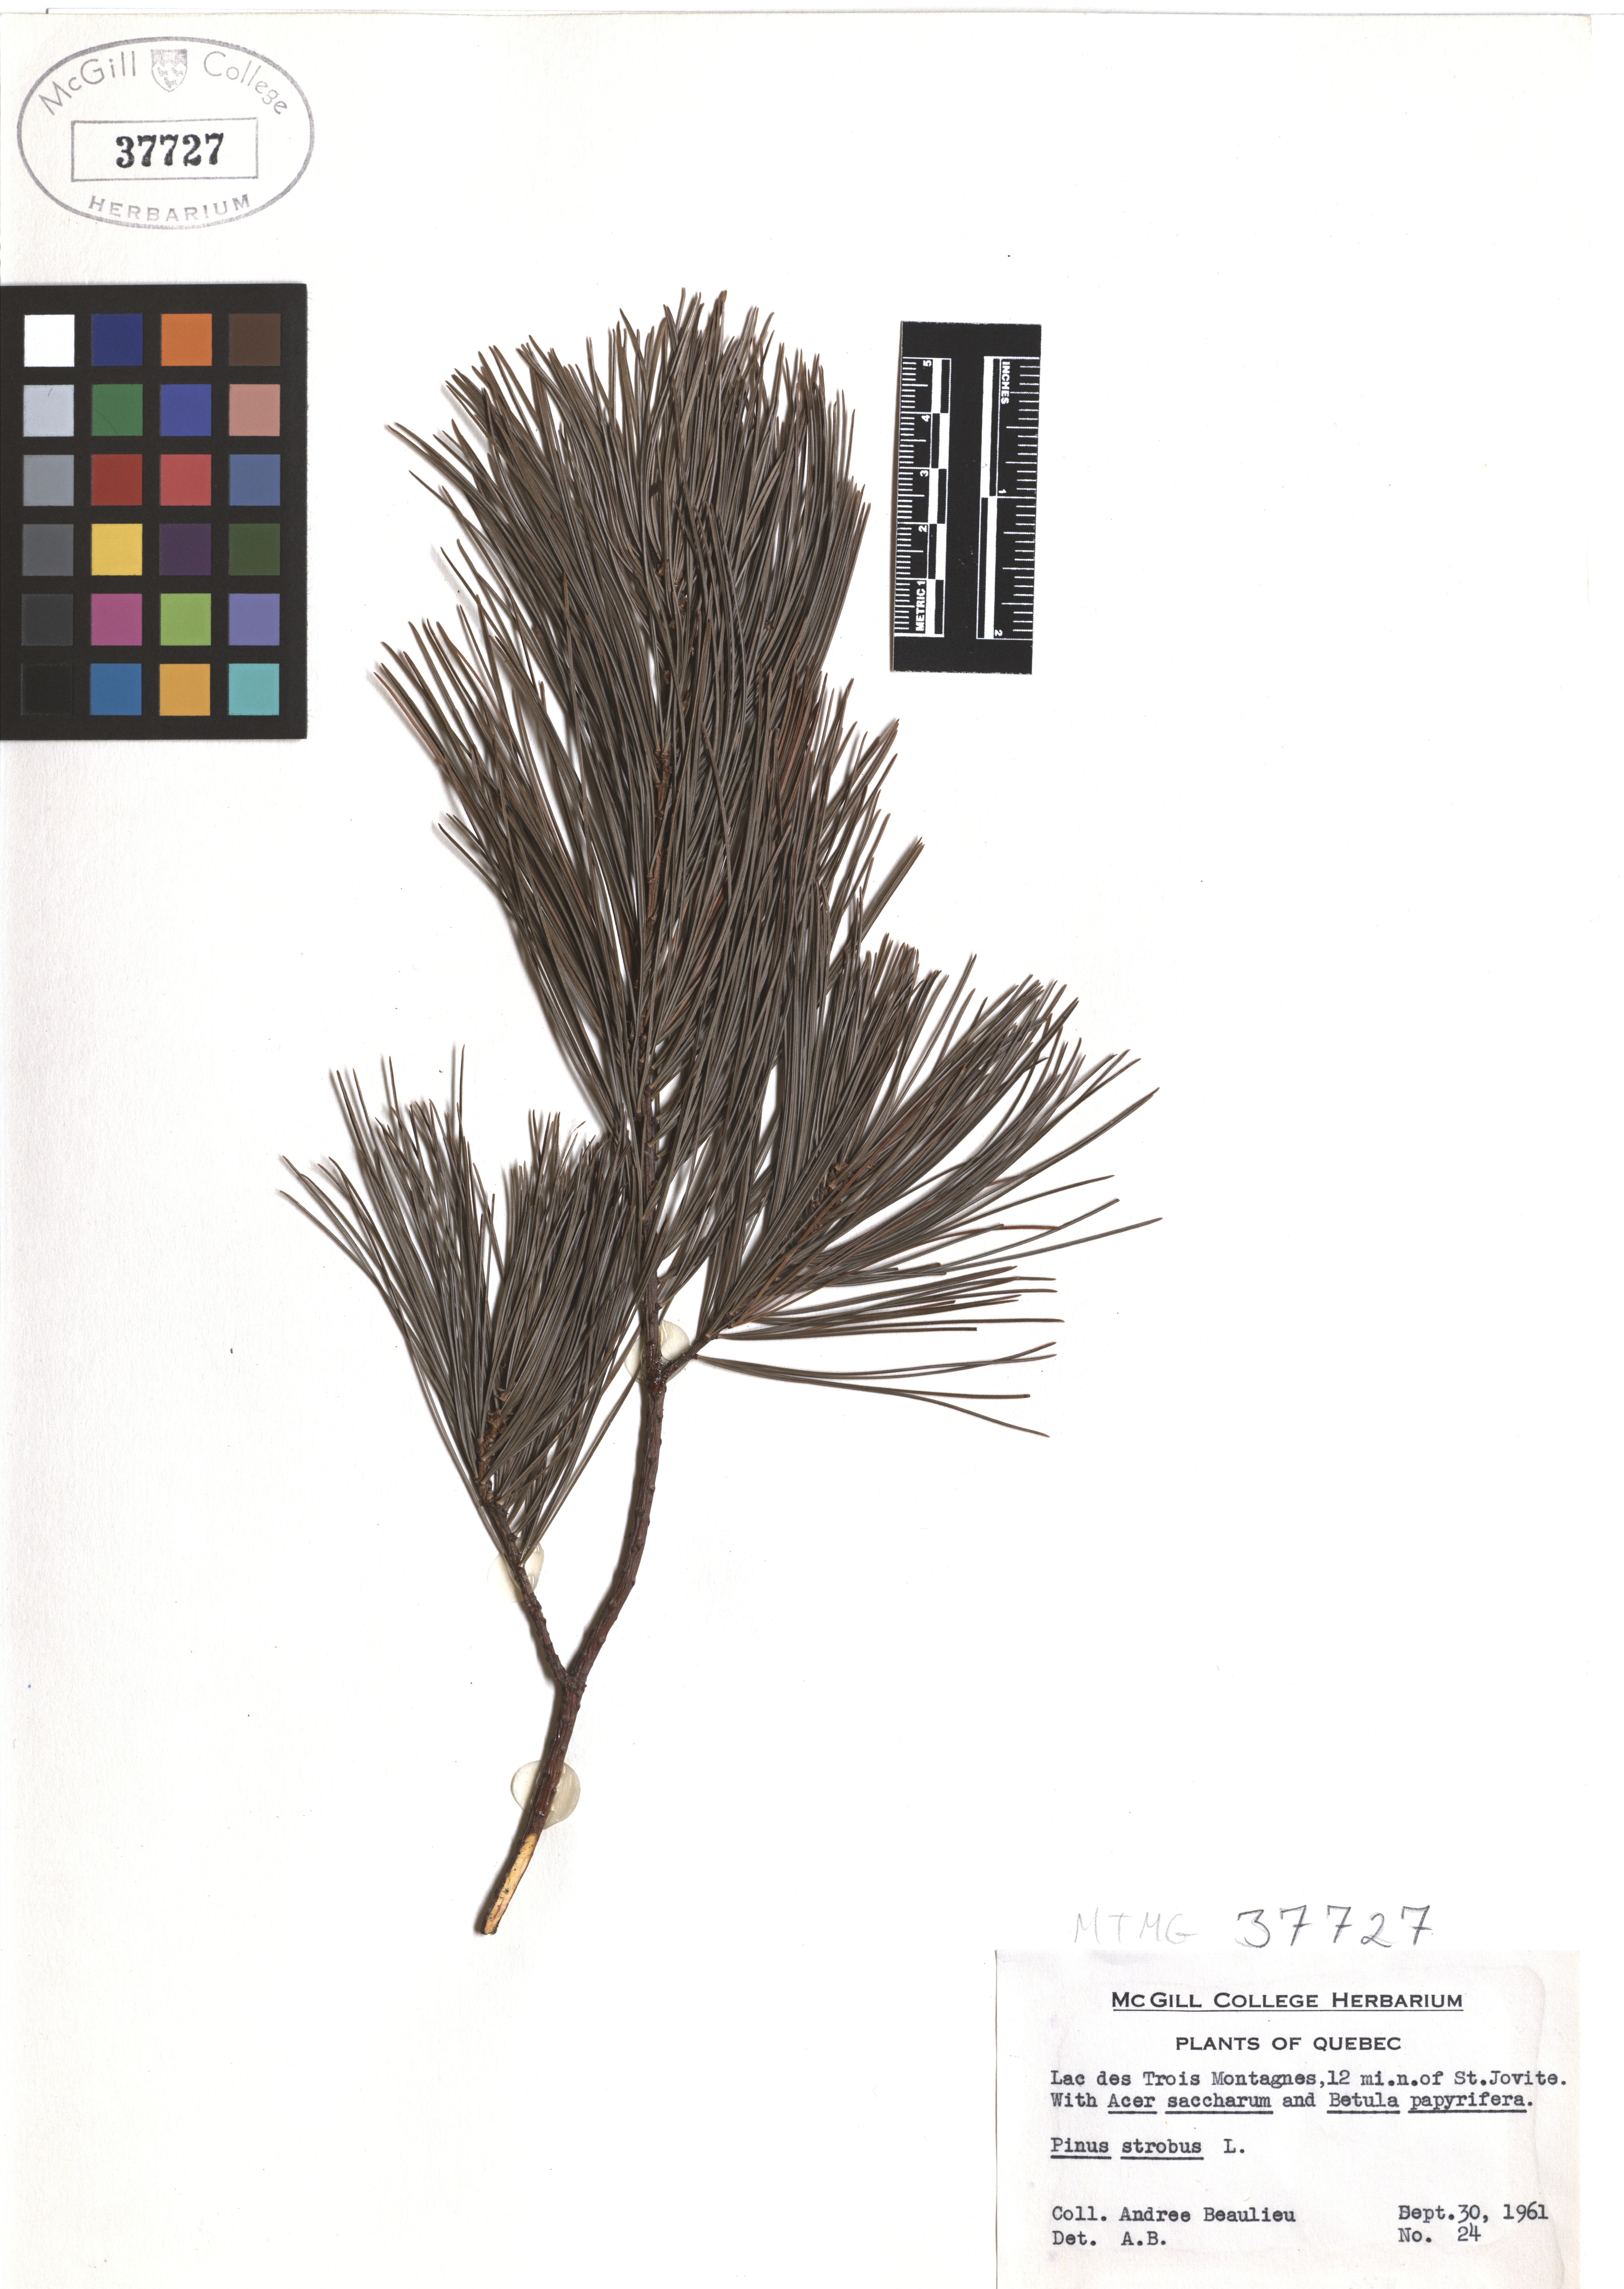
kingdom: Plantae
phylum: Tracheophyta
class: Pinopsida
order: Pinales
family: Pinaceae
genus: Pinus
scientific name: Pinus strobus
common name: Weymouth pine
